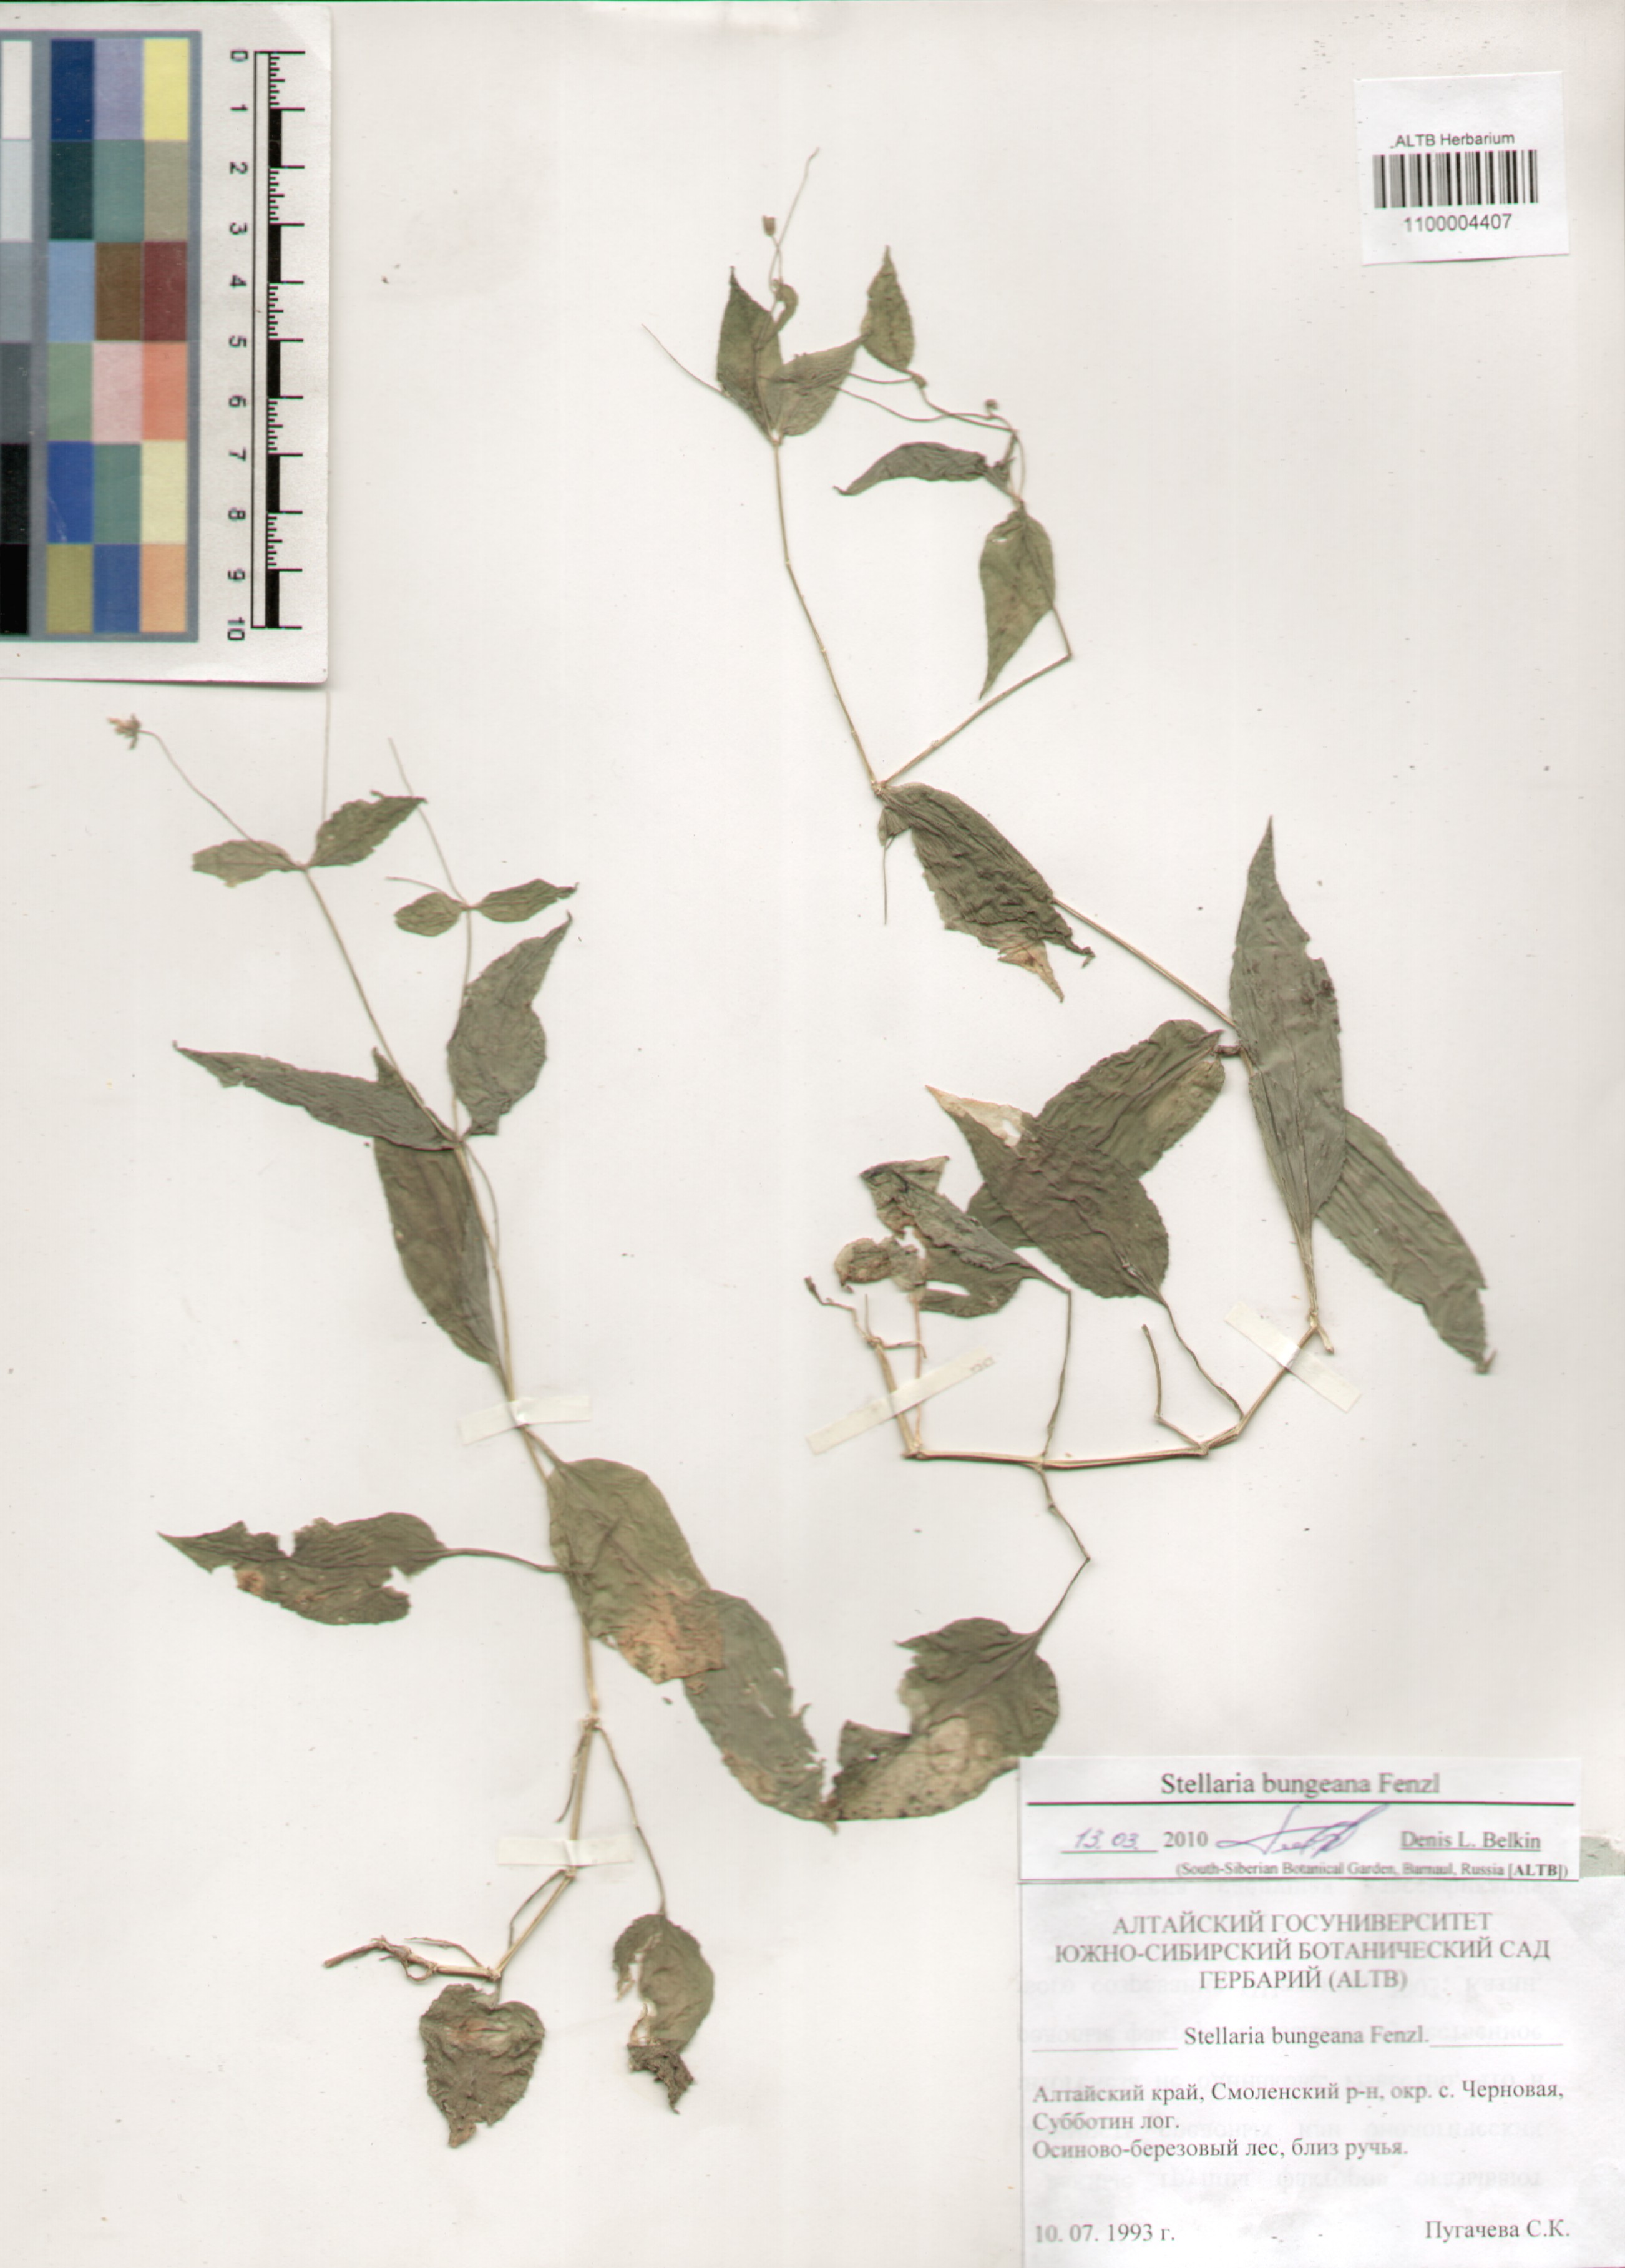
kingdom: Plantae
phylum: Tracheophyta
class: Magnoliopsida
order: Caryophyllales
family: Caryophyllaceae
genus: Stellaria
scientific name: Stellaria bungeana
